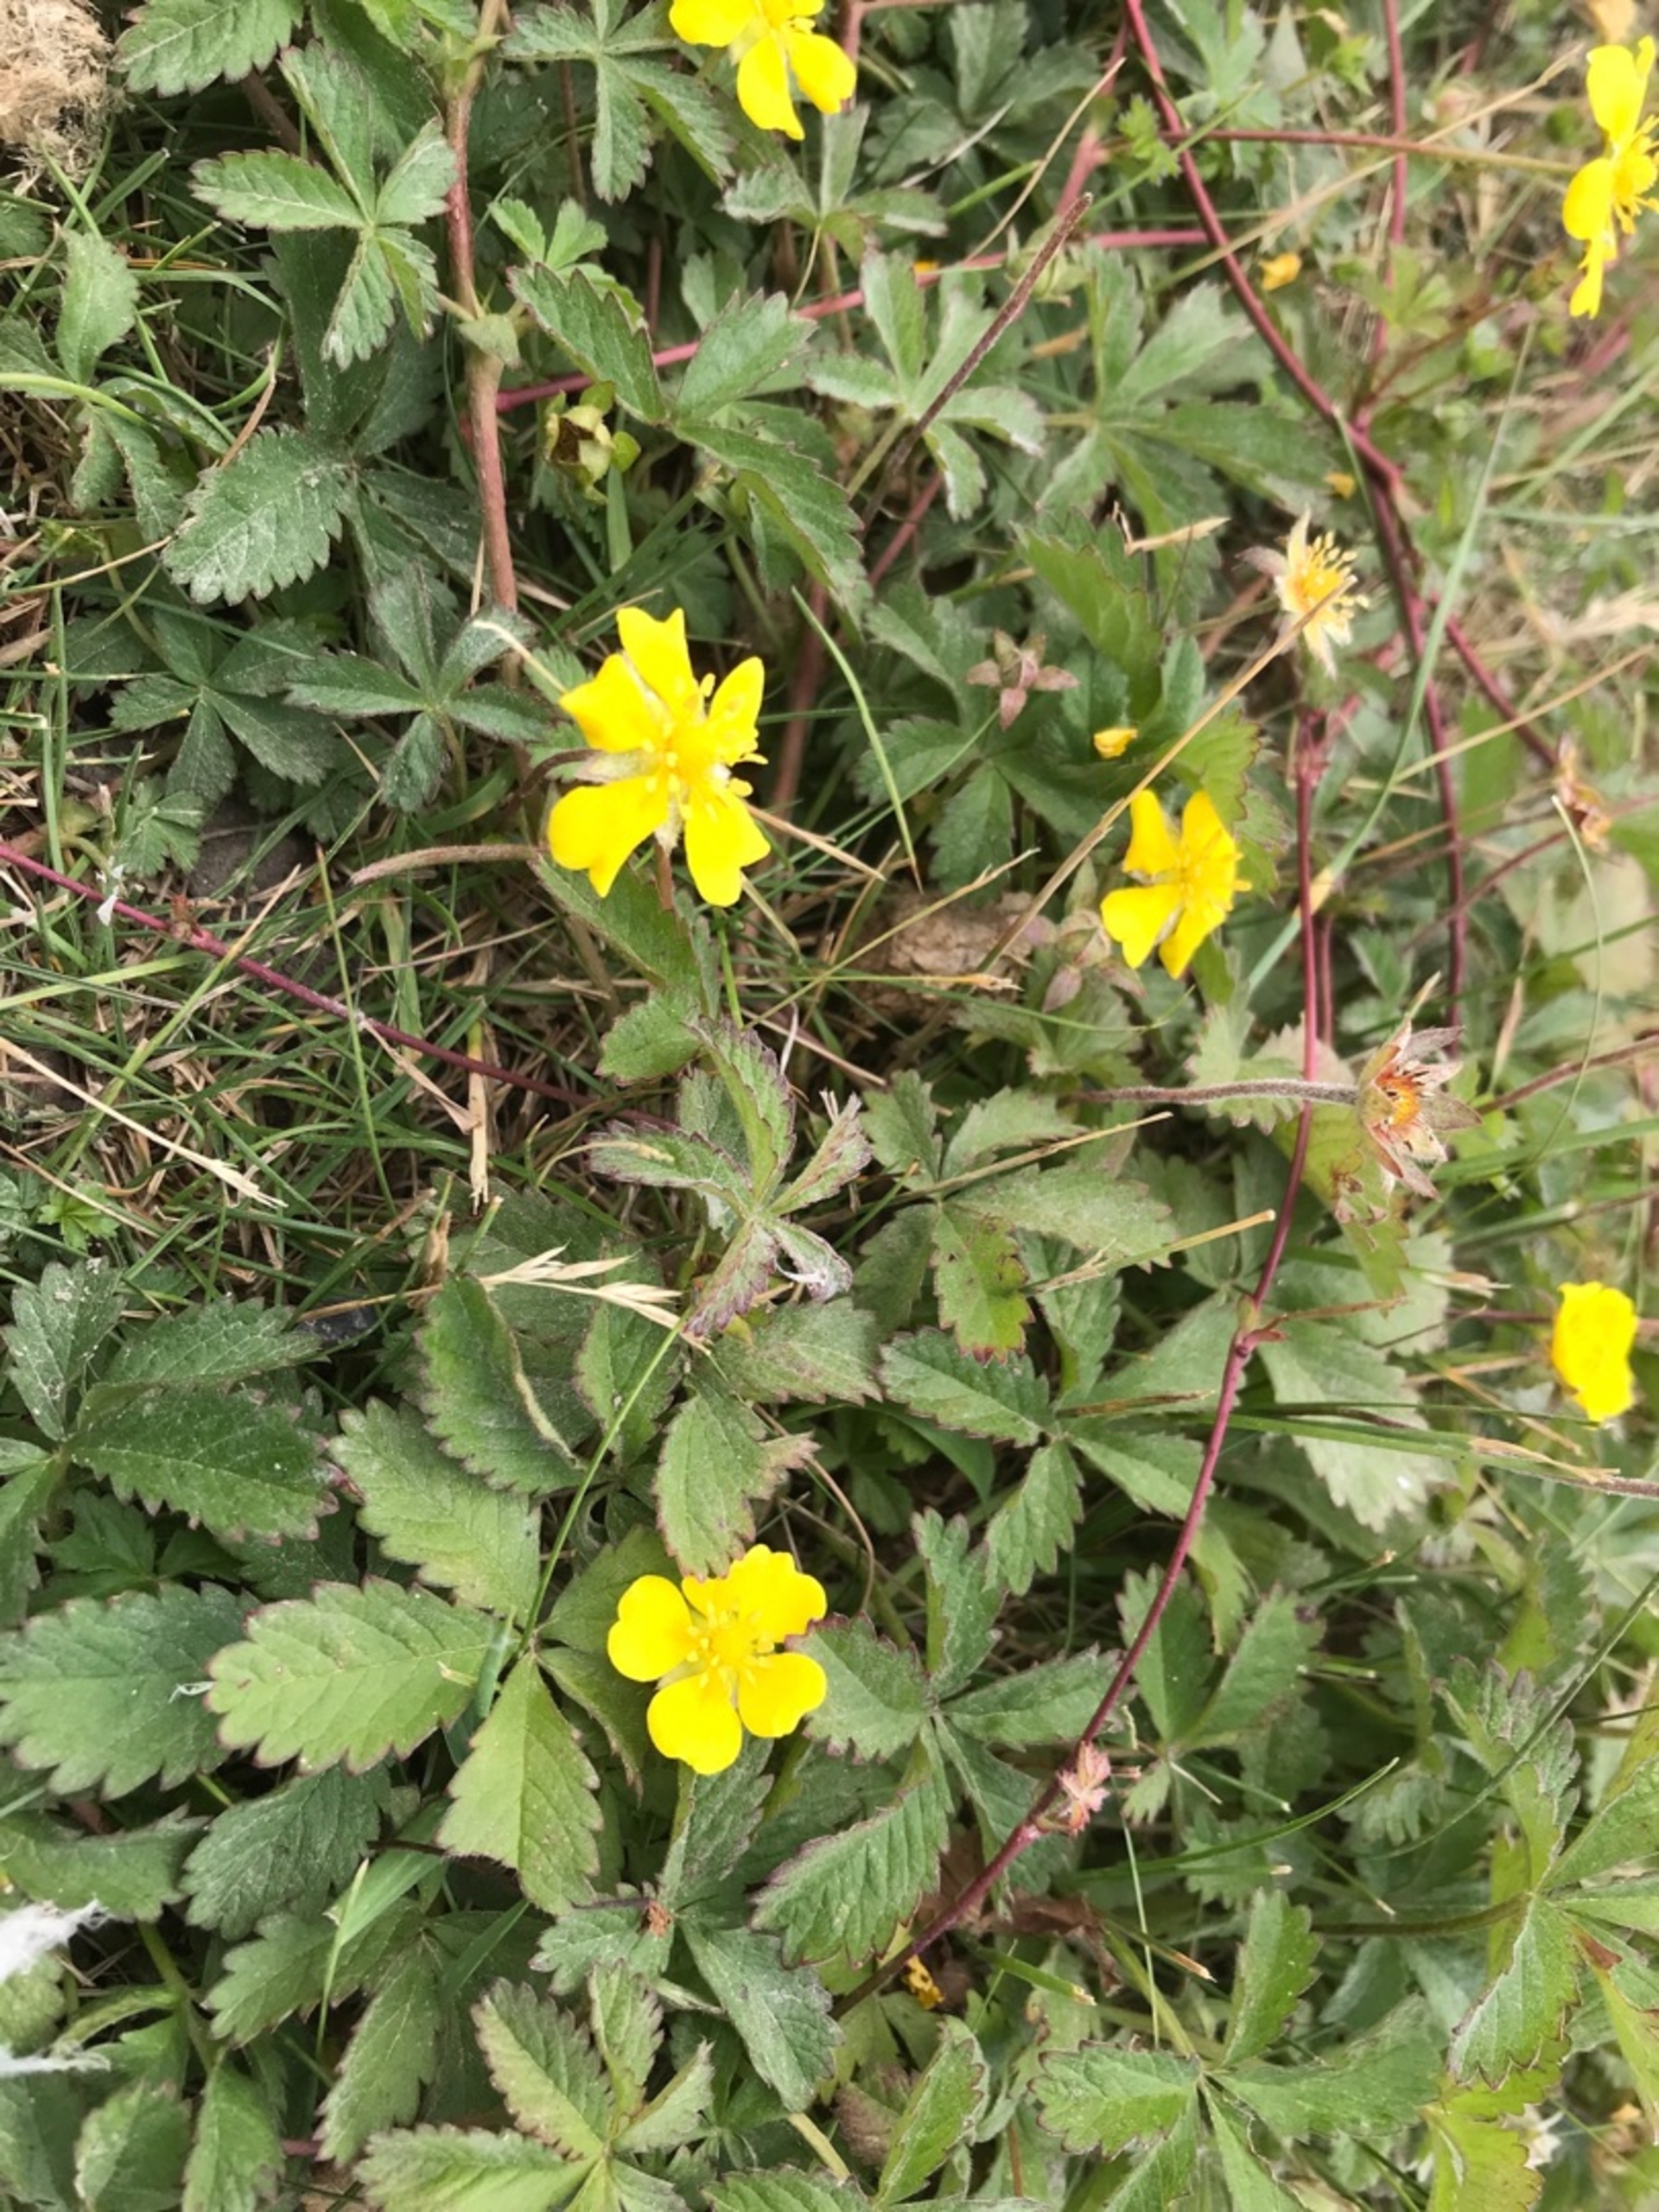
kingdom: Plantae
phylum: Tracheophyta
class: Magnoliopsida
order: Rosales
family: Rosaceae
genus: Potentilla
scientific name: Potentilla reptans
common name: Krybende potentil
